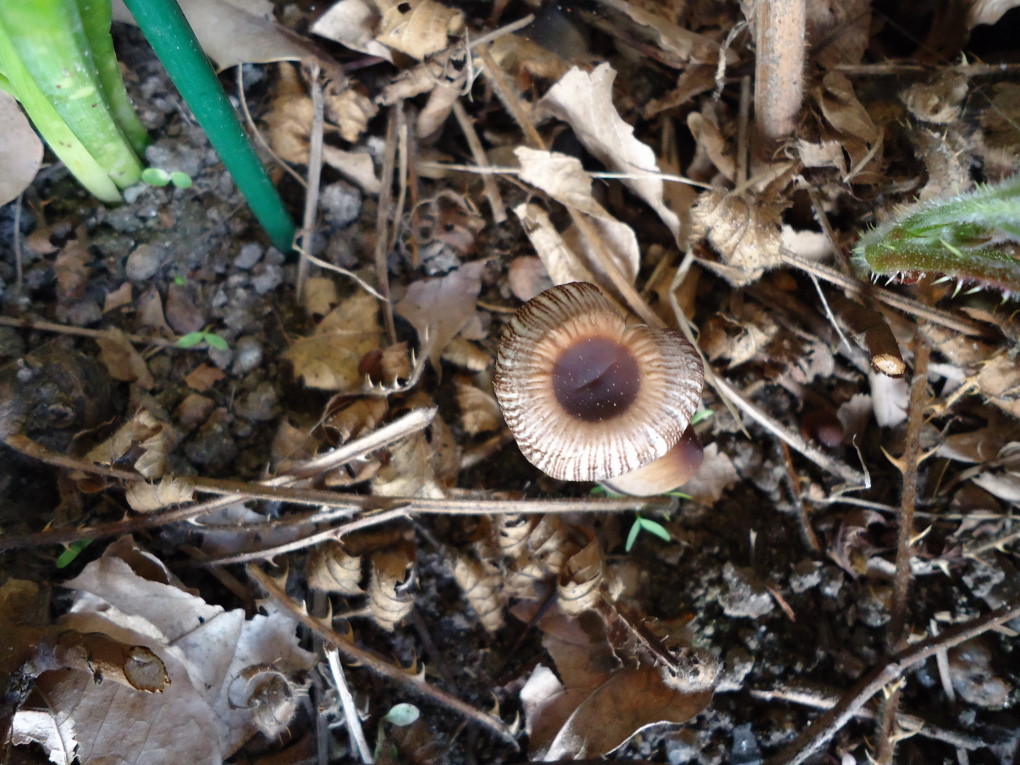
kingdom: Fungi
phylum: Basidiomycota
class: Agaricomycetes
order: Agaricales
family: Psathyrellaceae
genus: Parasola
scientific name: Parasola lactea
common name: glat hjulhat
